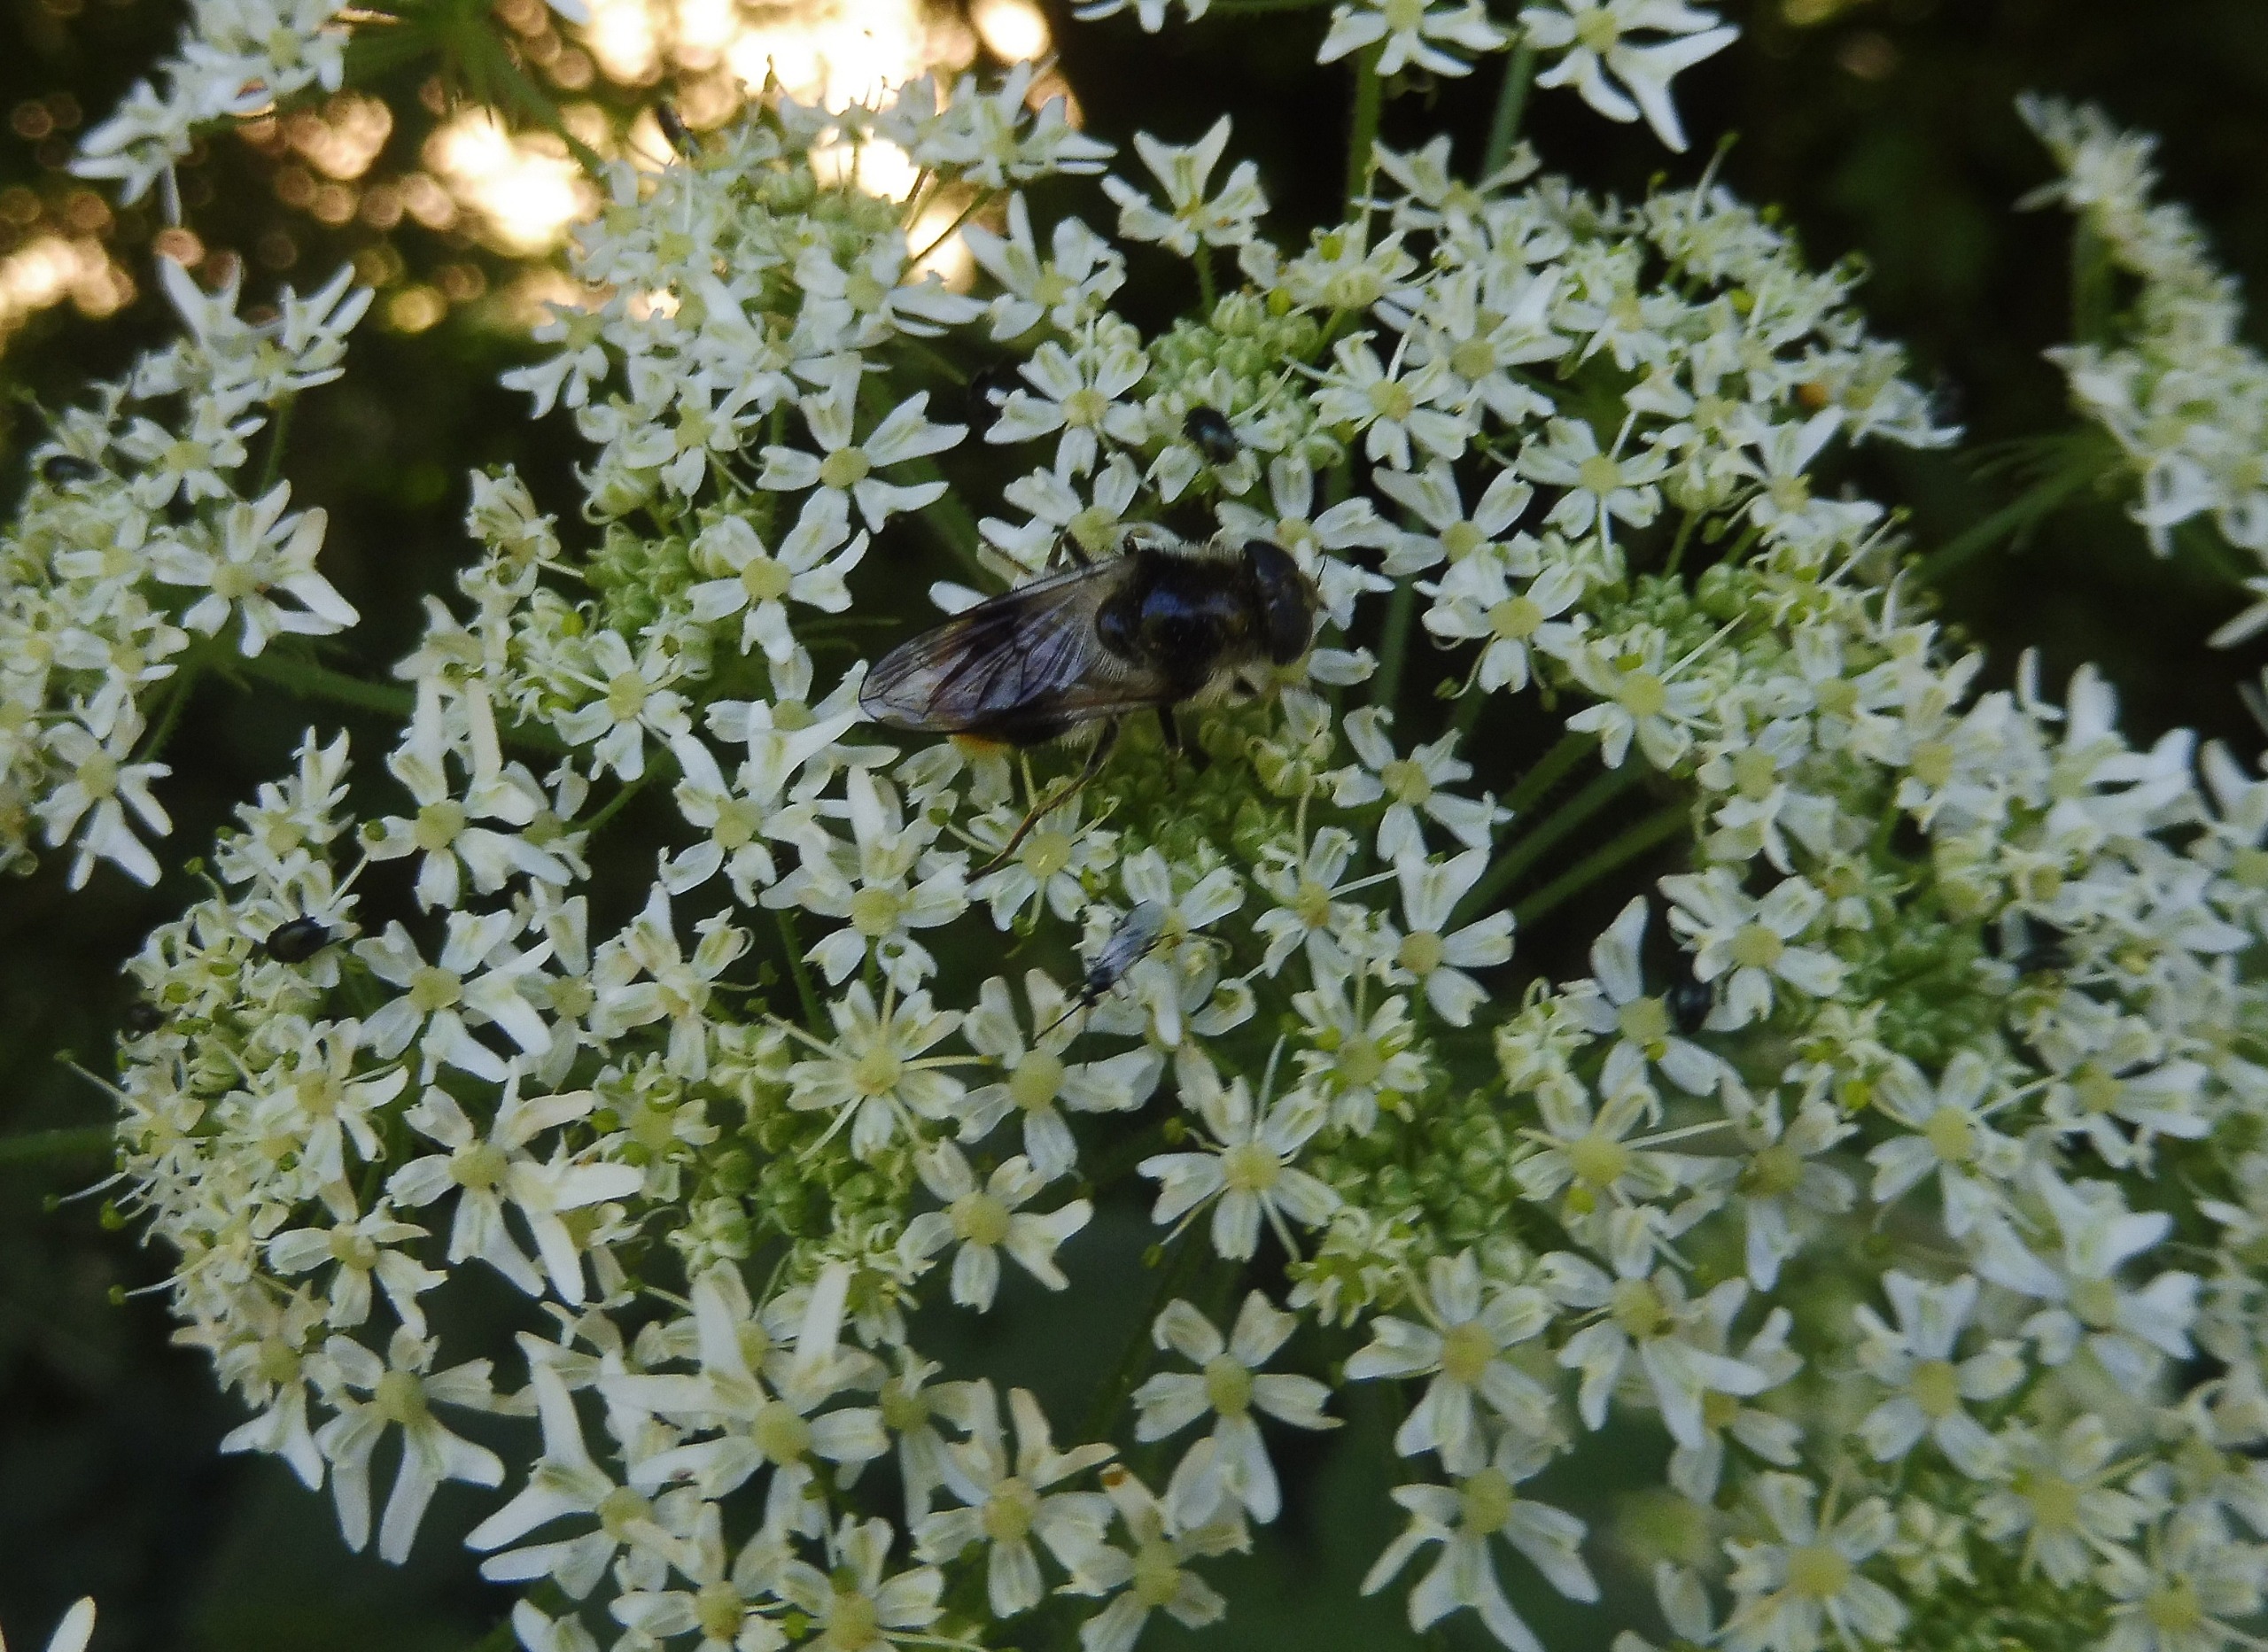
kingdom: Animalia
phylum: Arthropoda
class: Insecta
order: Diptera
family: Syrphidae
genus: Cheilosia
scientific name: Cheilosia illustrata
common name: Broget urtesvirreflue
